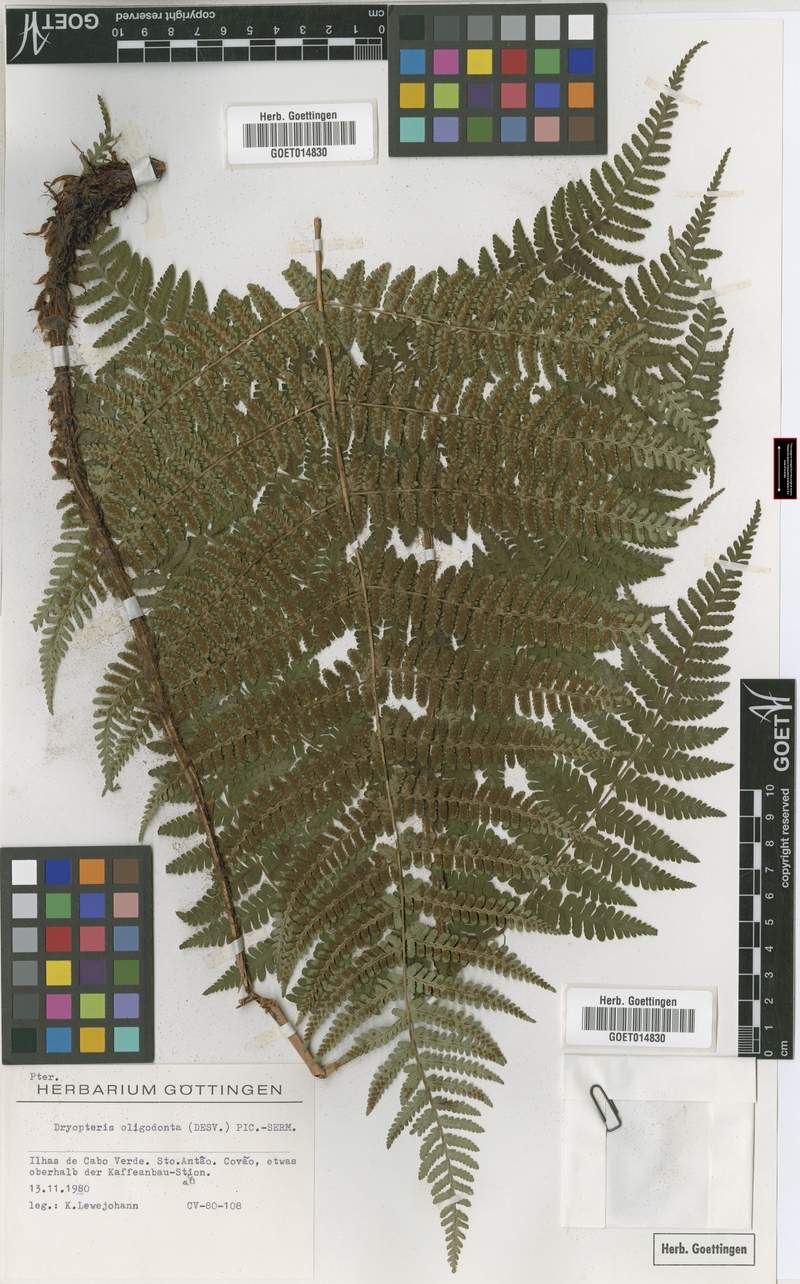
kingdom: Plantae
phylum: Tracheophyta
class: Polypodiopsida
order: Polypodiales
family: Dryopteridaceae
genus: Dryopteris
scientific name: Dryopteris oligodonta
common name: Canarian male-fern
